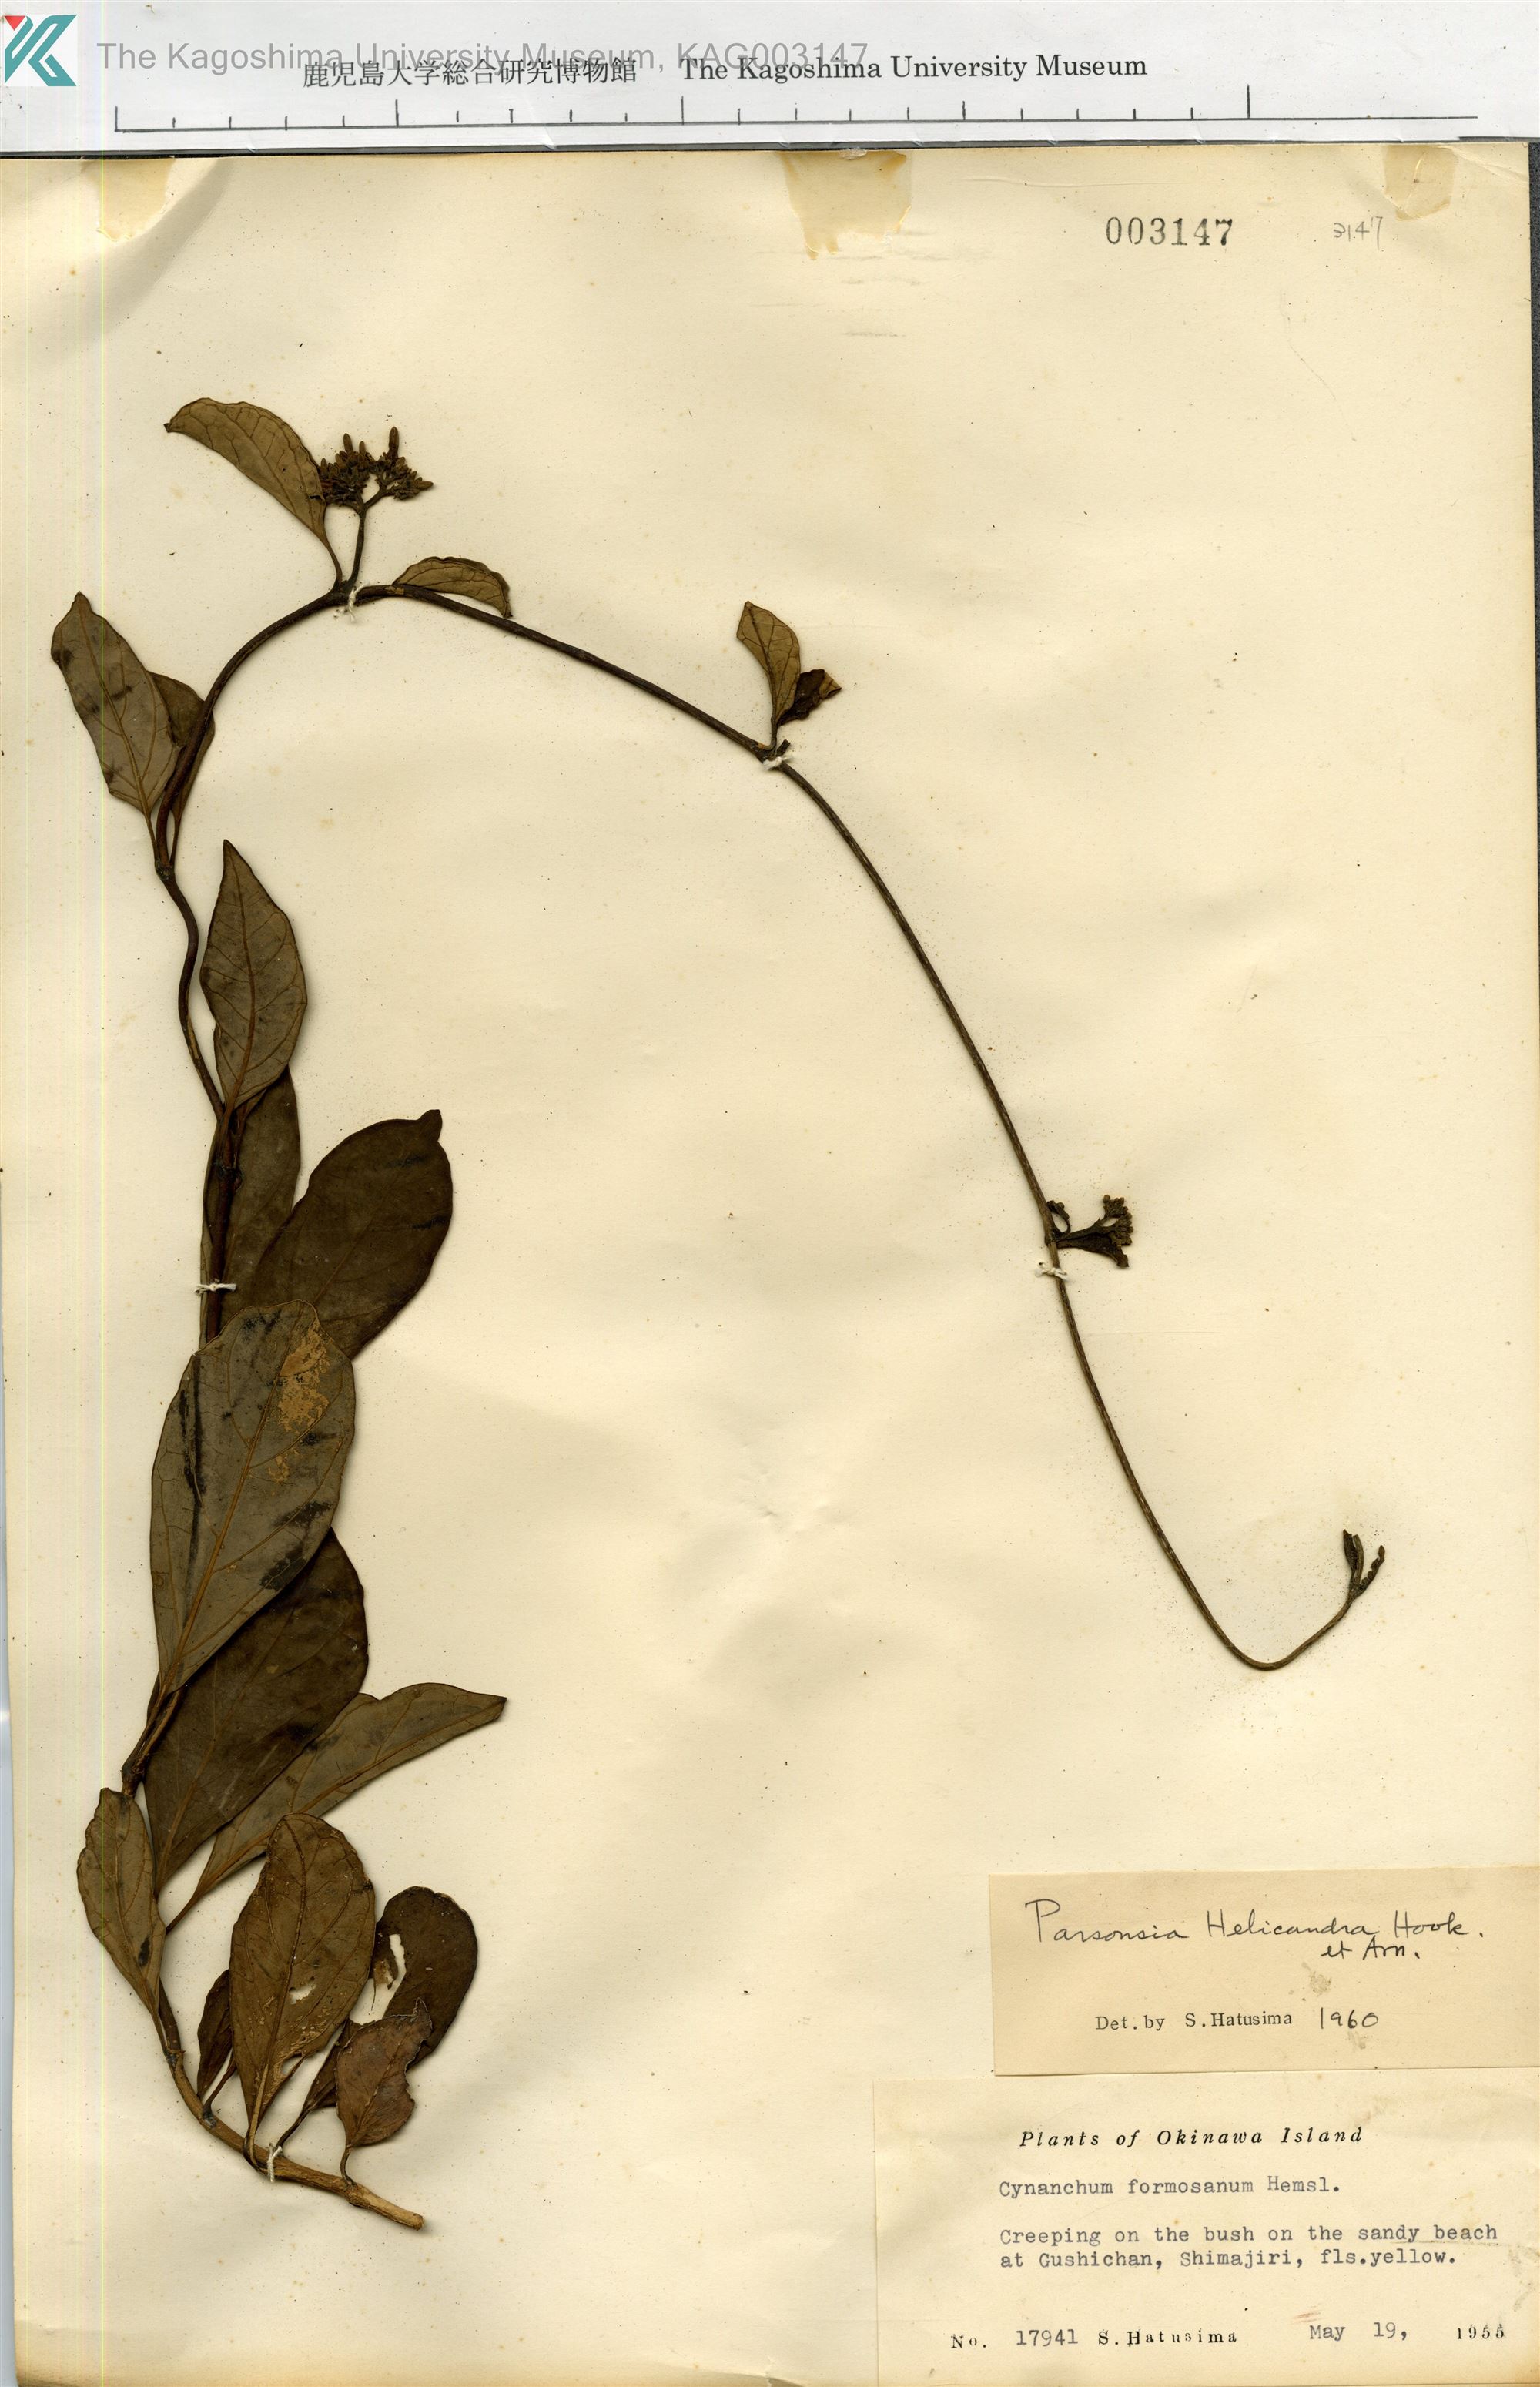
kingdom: Plantae
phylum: Tracheophyta
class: Magnoliopsida
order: Gentianales
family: Apocynaceae
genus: Parsonsia
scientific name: Parsonsia alboflavescens
